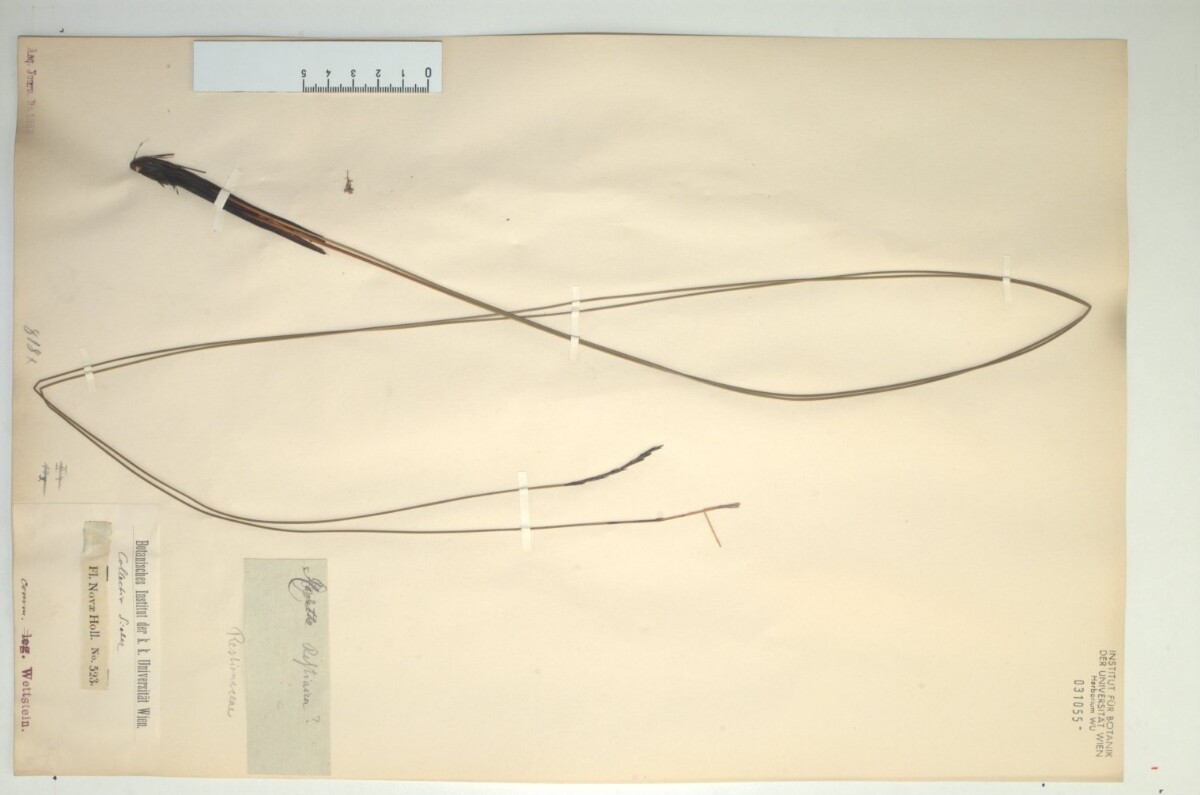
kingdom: Plantae
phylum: Tracheophyta
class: Liliopsida
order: Poales
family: Restionaceae
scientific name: Restionaceae
